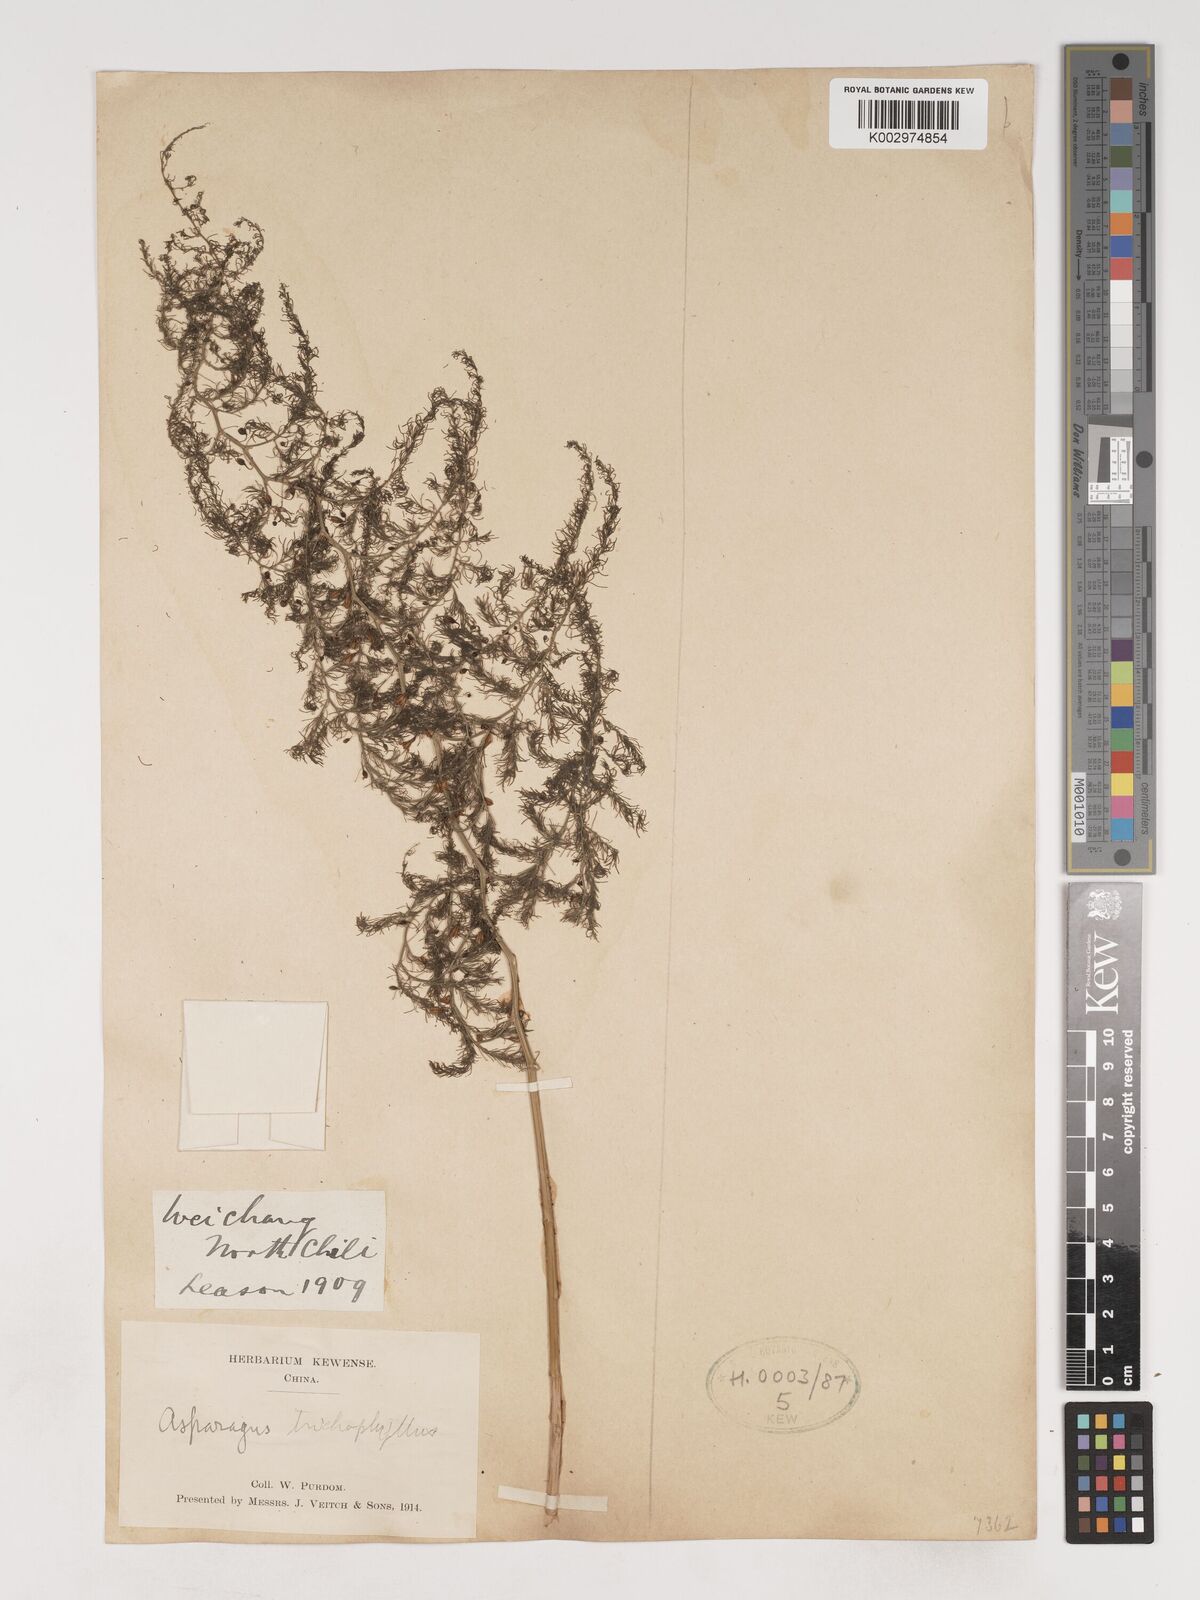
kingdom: Plantae
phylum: Tracheophyta
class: Liliopsida
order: Asparagales
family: Asparagaceae
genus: Asparagus
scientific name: Asparagus trichophyllus
